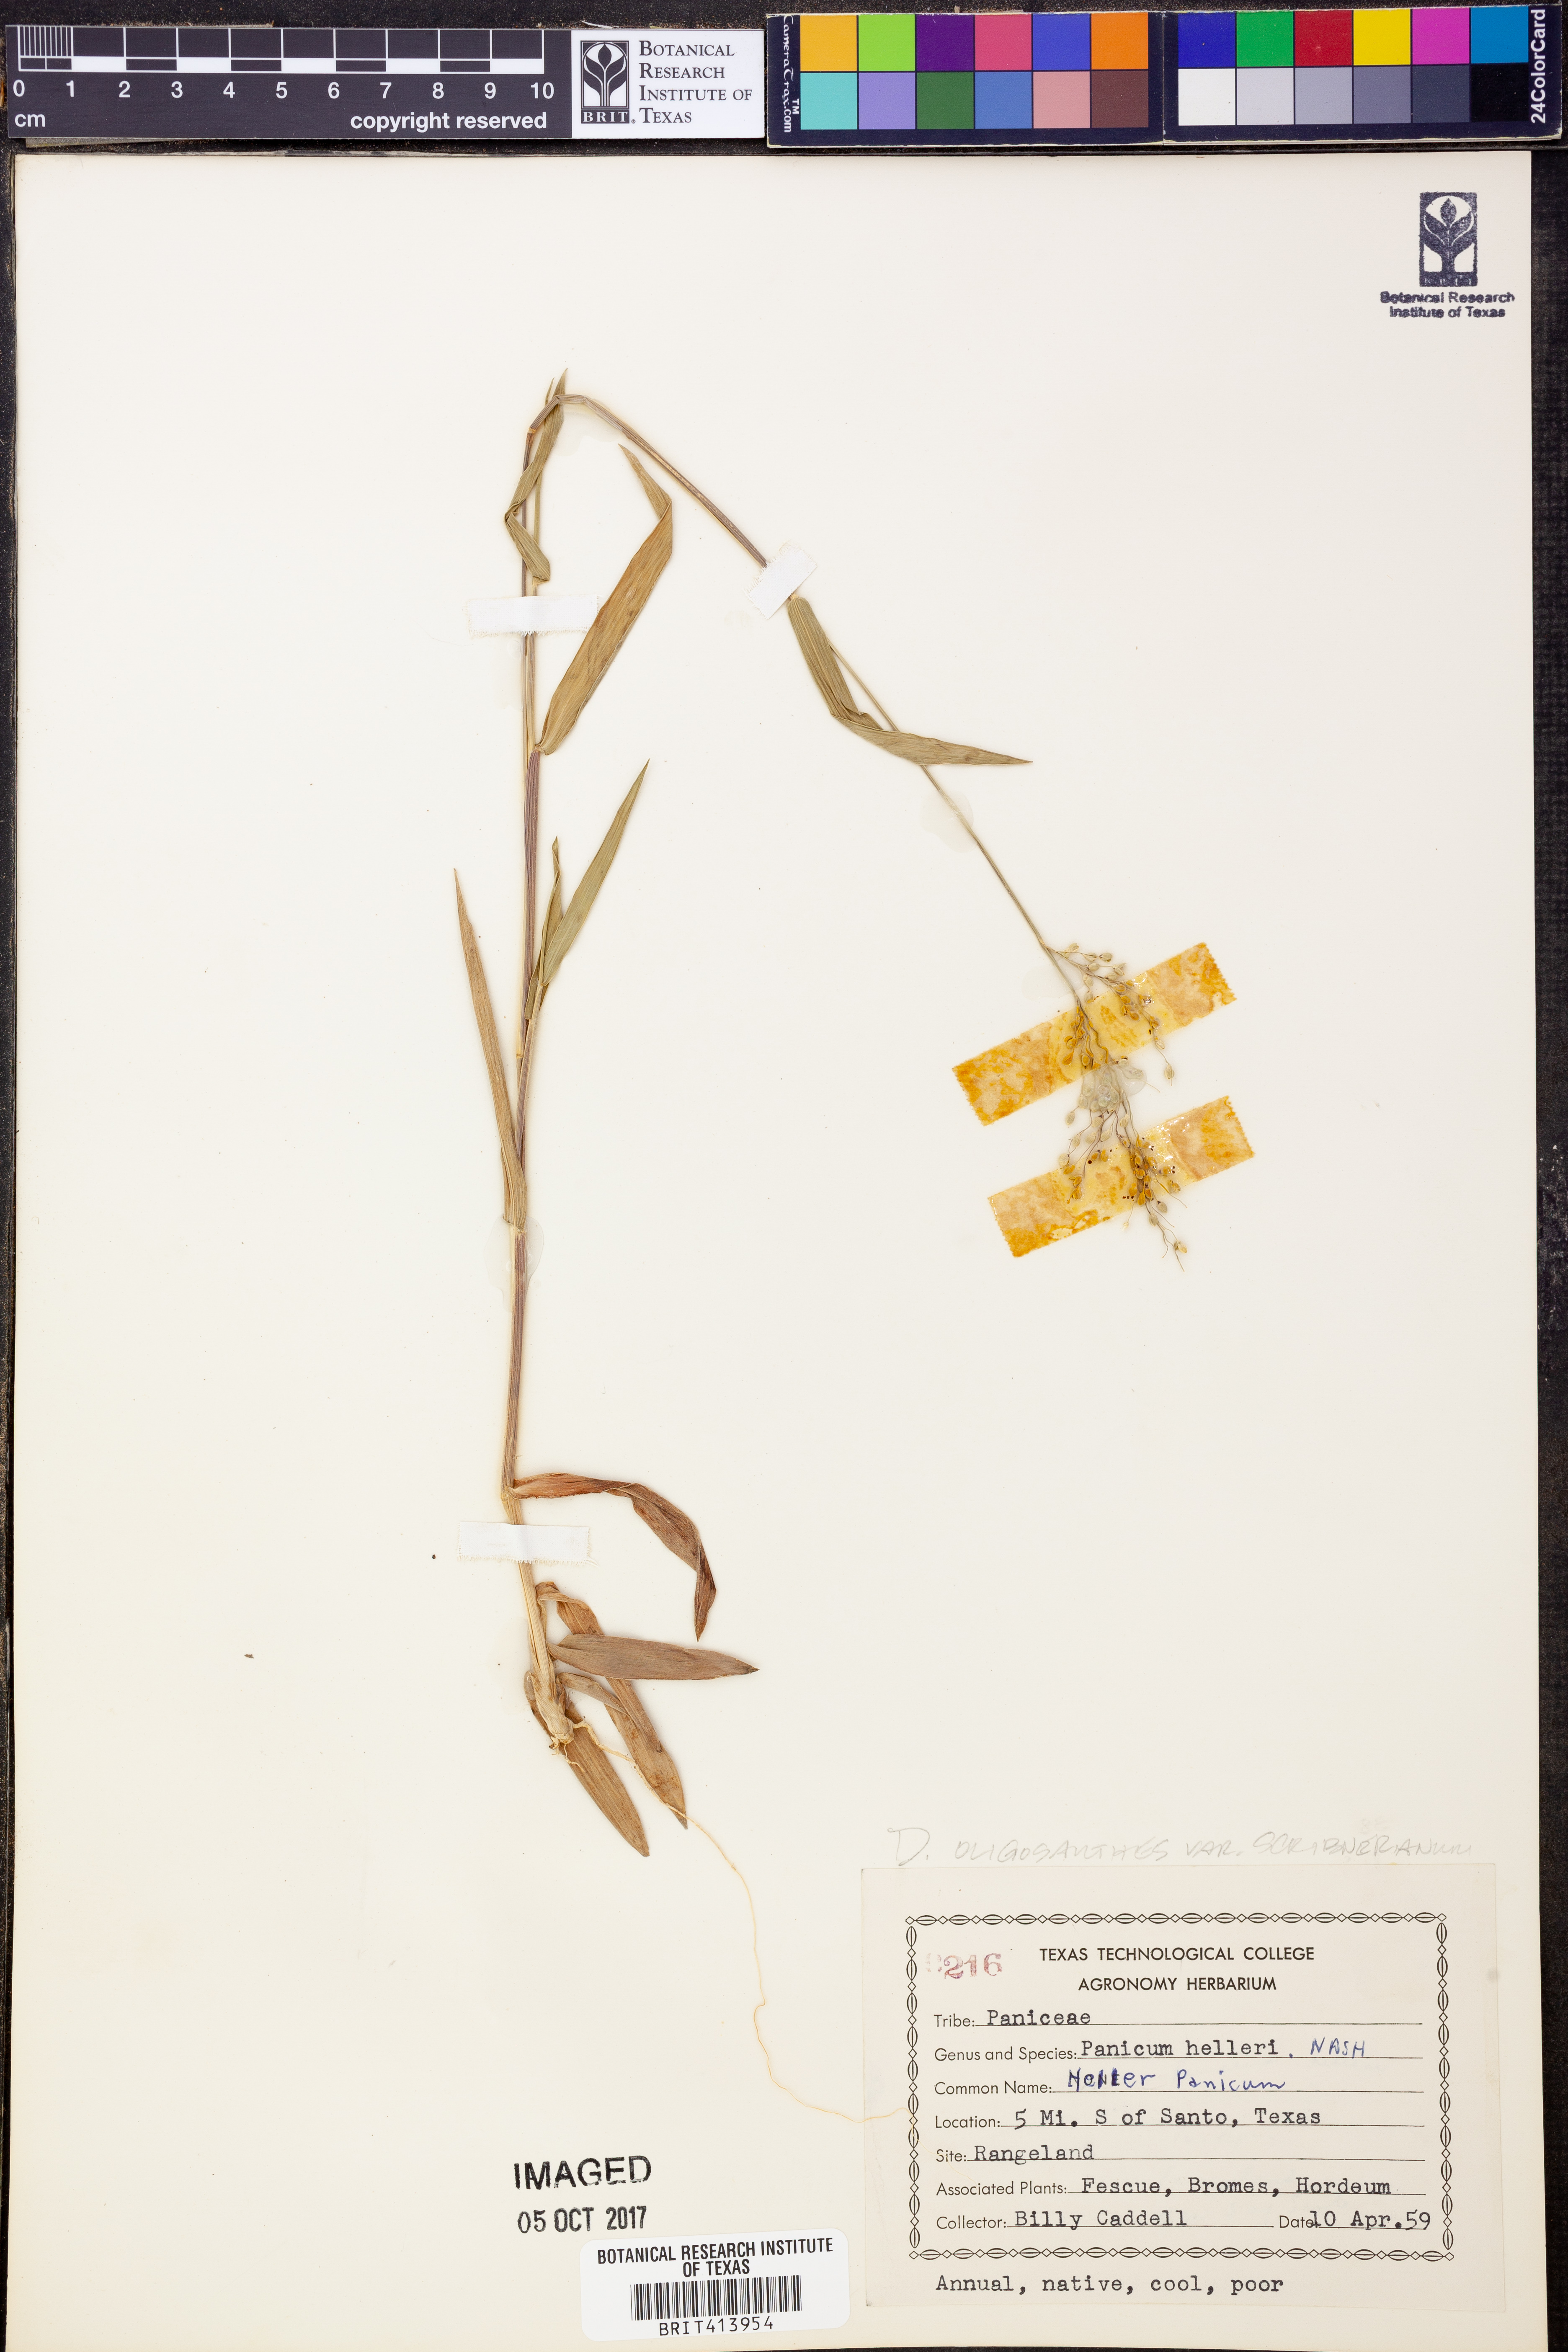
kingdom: Plantae
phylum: Tracheophyta
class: Liliopsida
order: Poales
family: Poaceae
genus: Dichanthelium
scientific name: Dichanthelium scribnerianum
